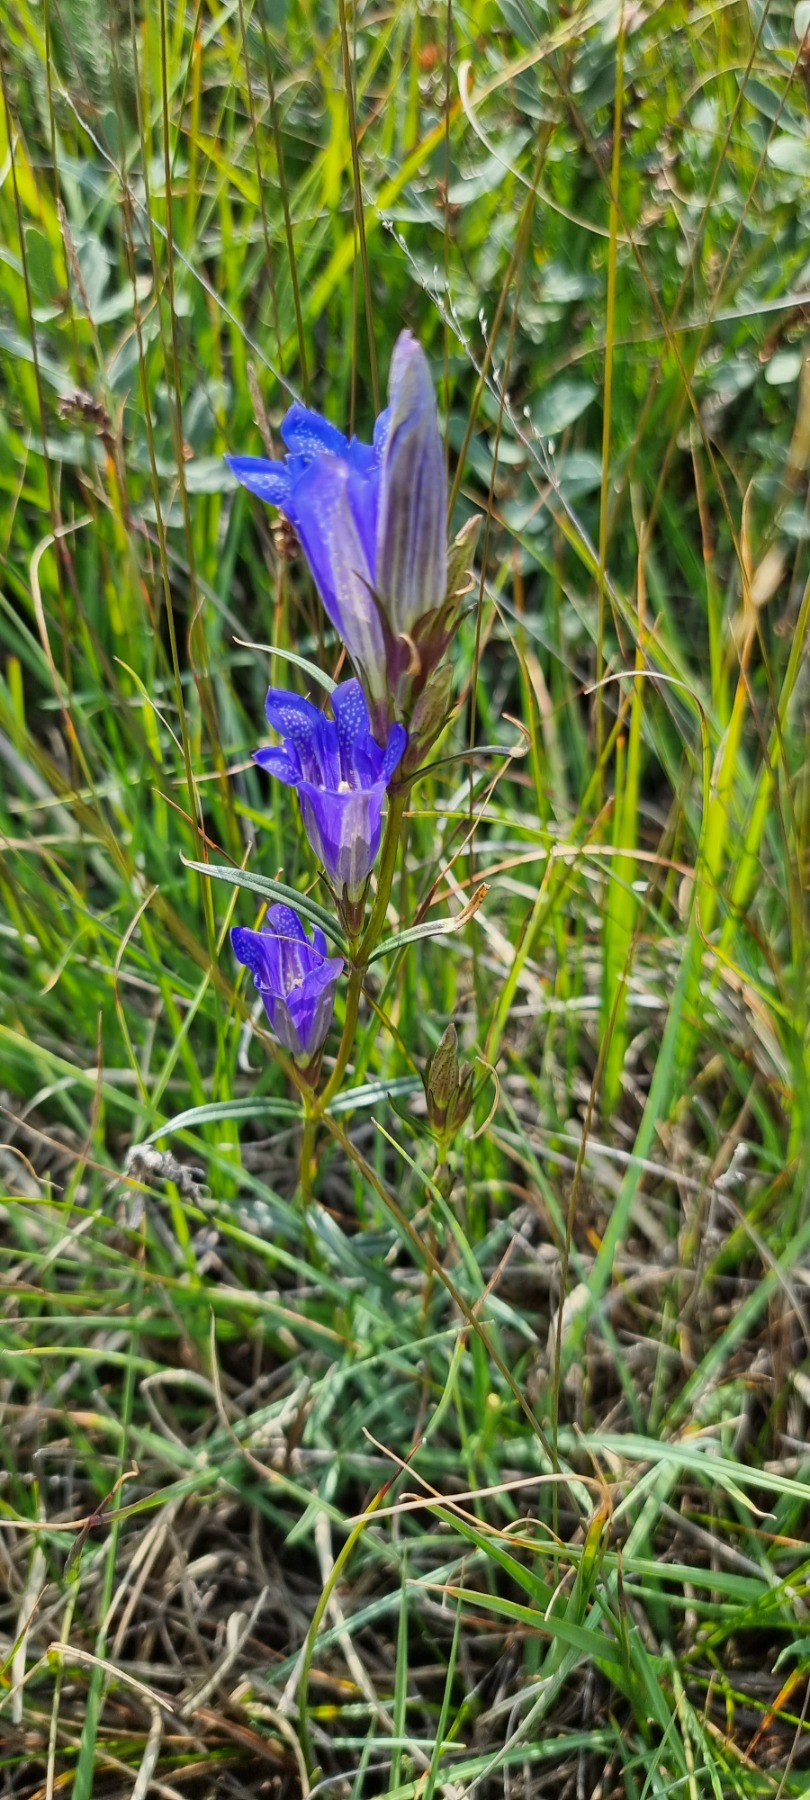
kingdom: Plantae
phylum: Tracheophyta
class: Magnoliopsida
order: Gentianales
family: Gentianaceae
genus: Gentiana
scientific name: Gentiana pneumonanthe
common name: Klokke-ensian
